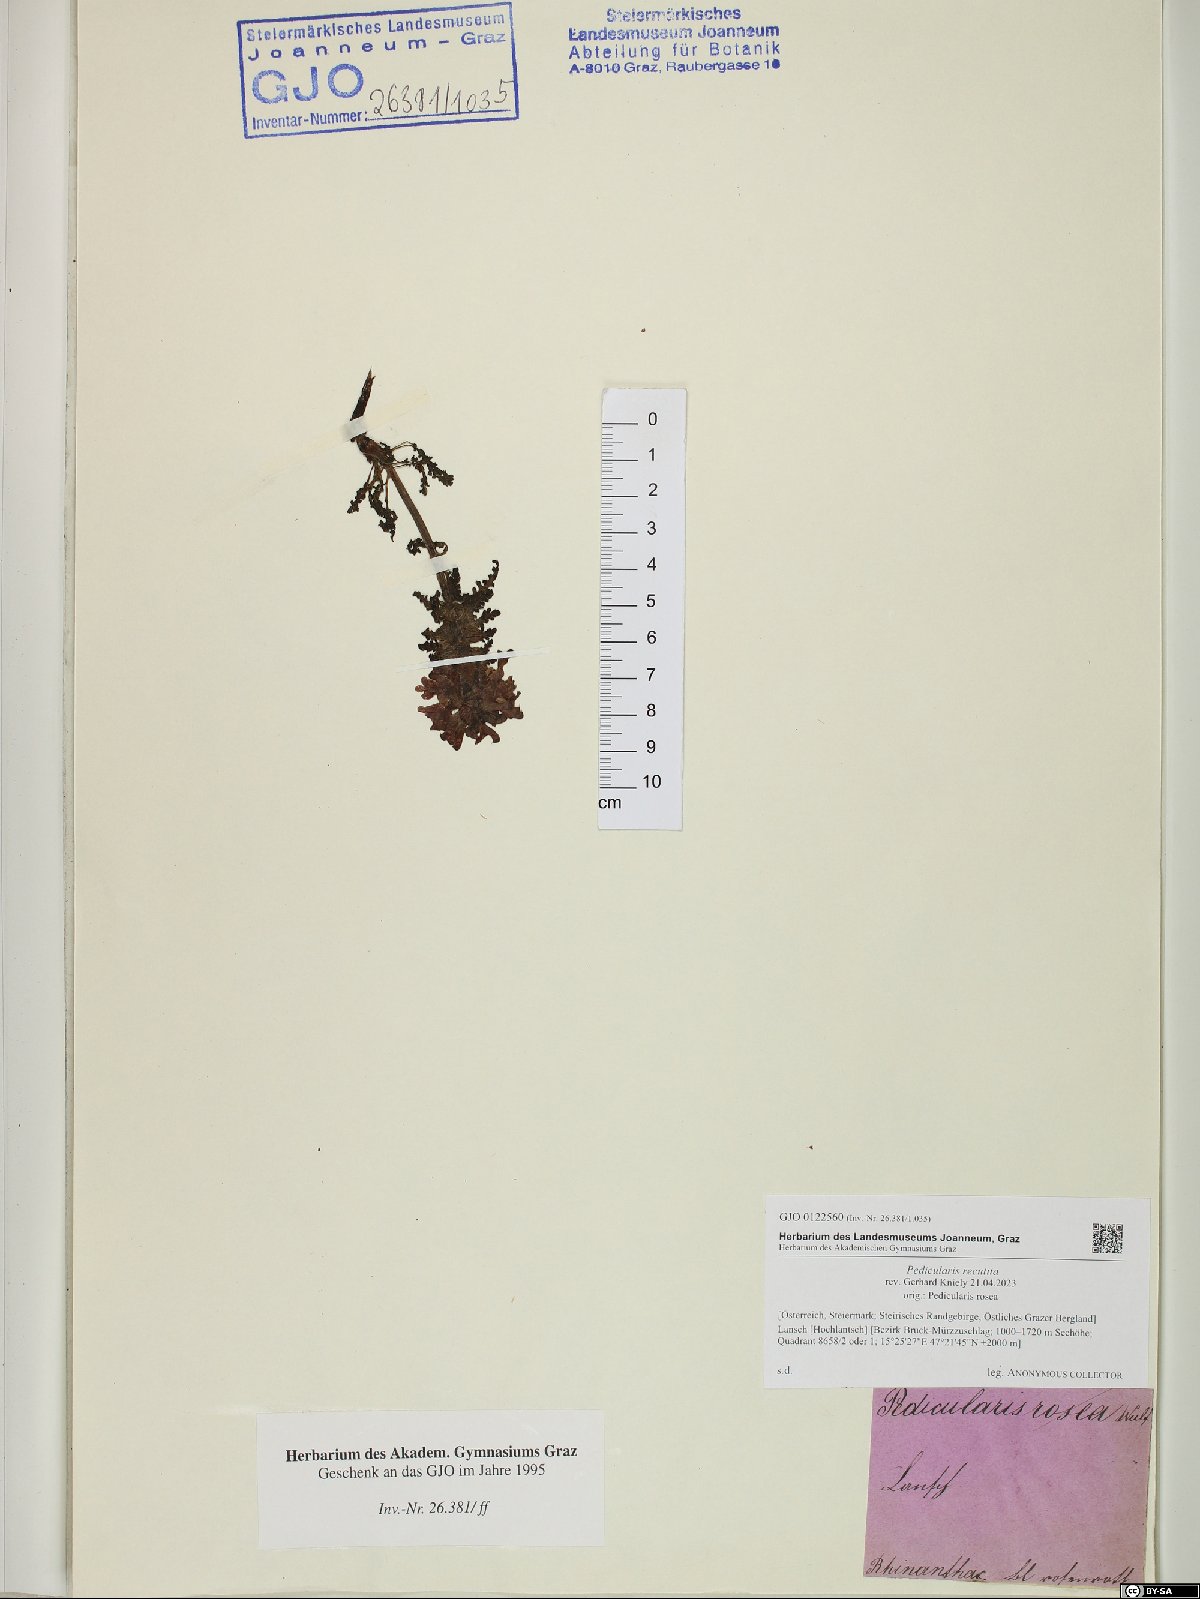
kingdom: Plantae
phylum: Tracheophyta
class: Magnoliopsida
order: Lamiales
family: Orobanchaceae
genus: Pedicularis
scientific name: Pedicularis recutita
